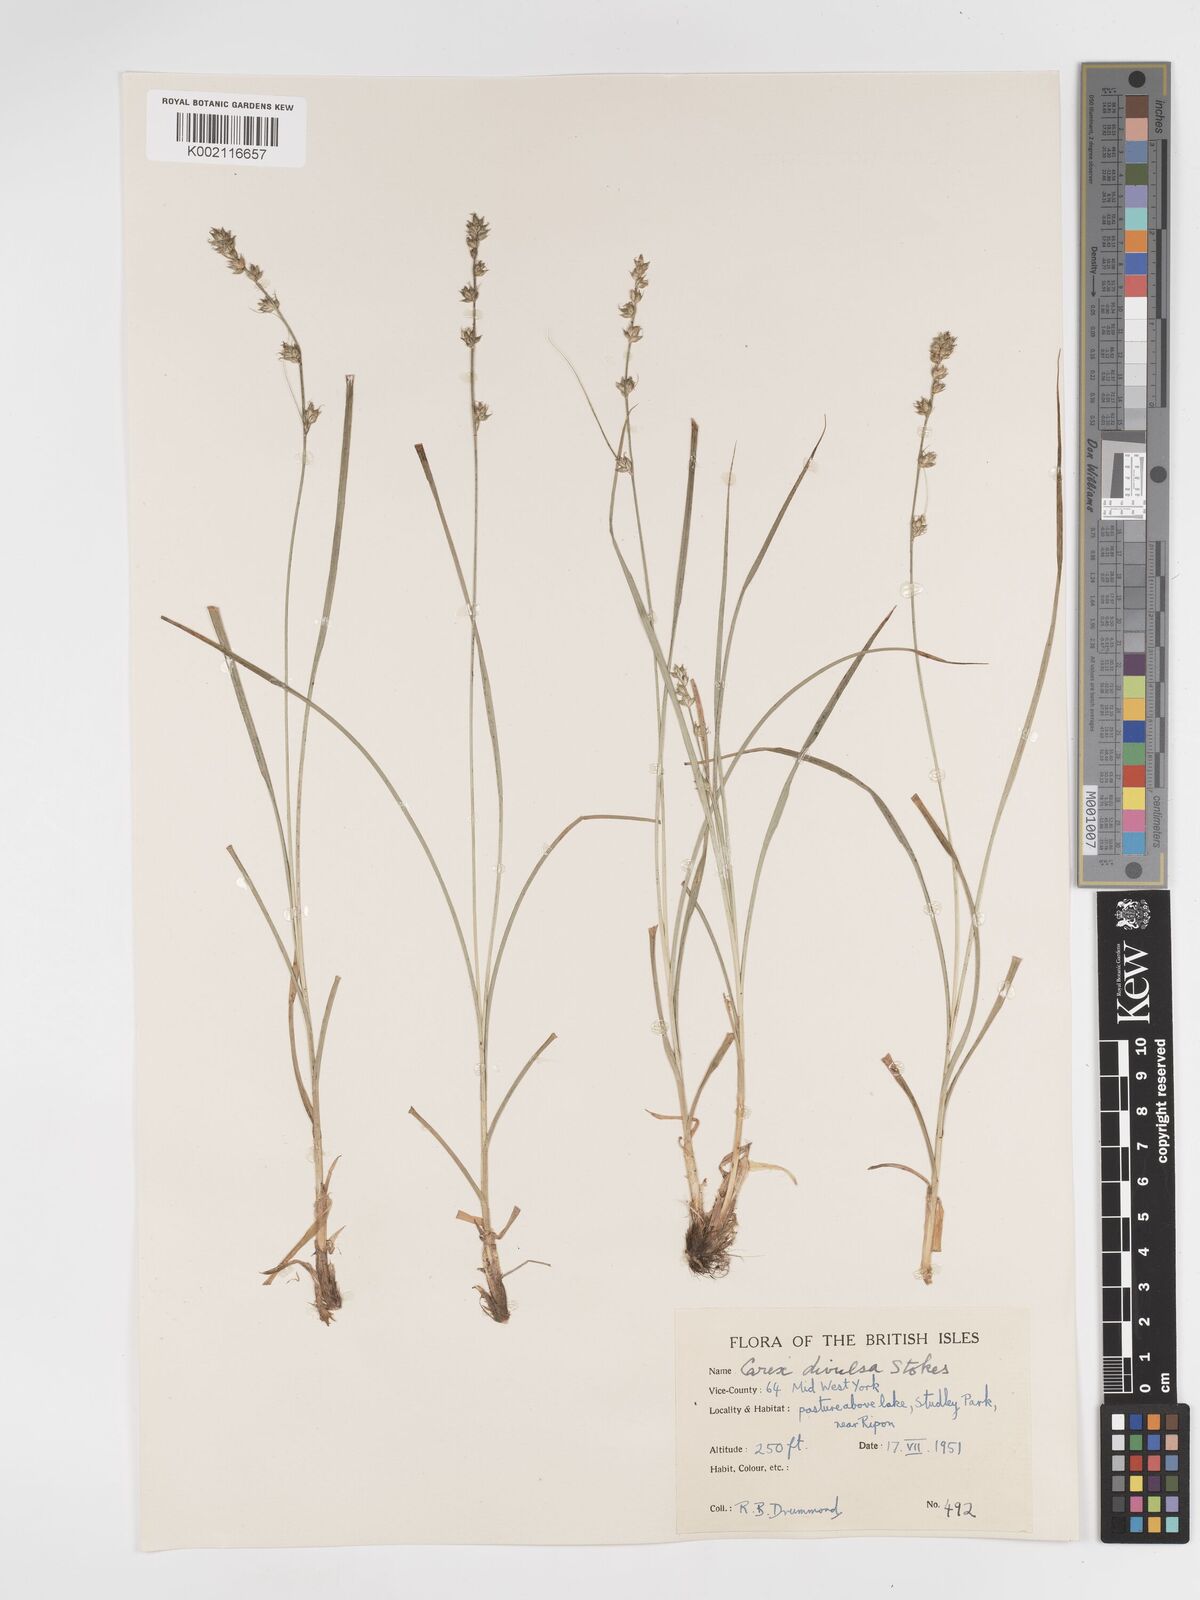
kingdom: Plantae
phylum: Tracheophyta
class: Liliopsida
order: Poales
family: Cyperaceae
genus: Carex
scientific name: Carex divulsa
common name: Grassland sedge
